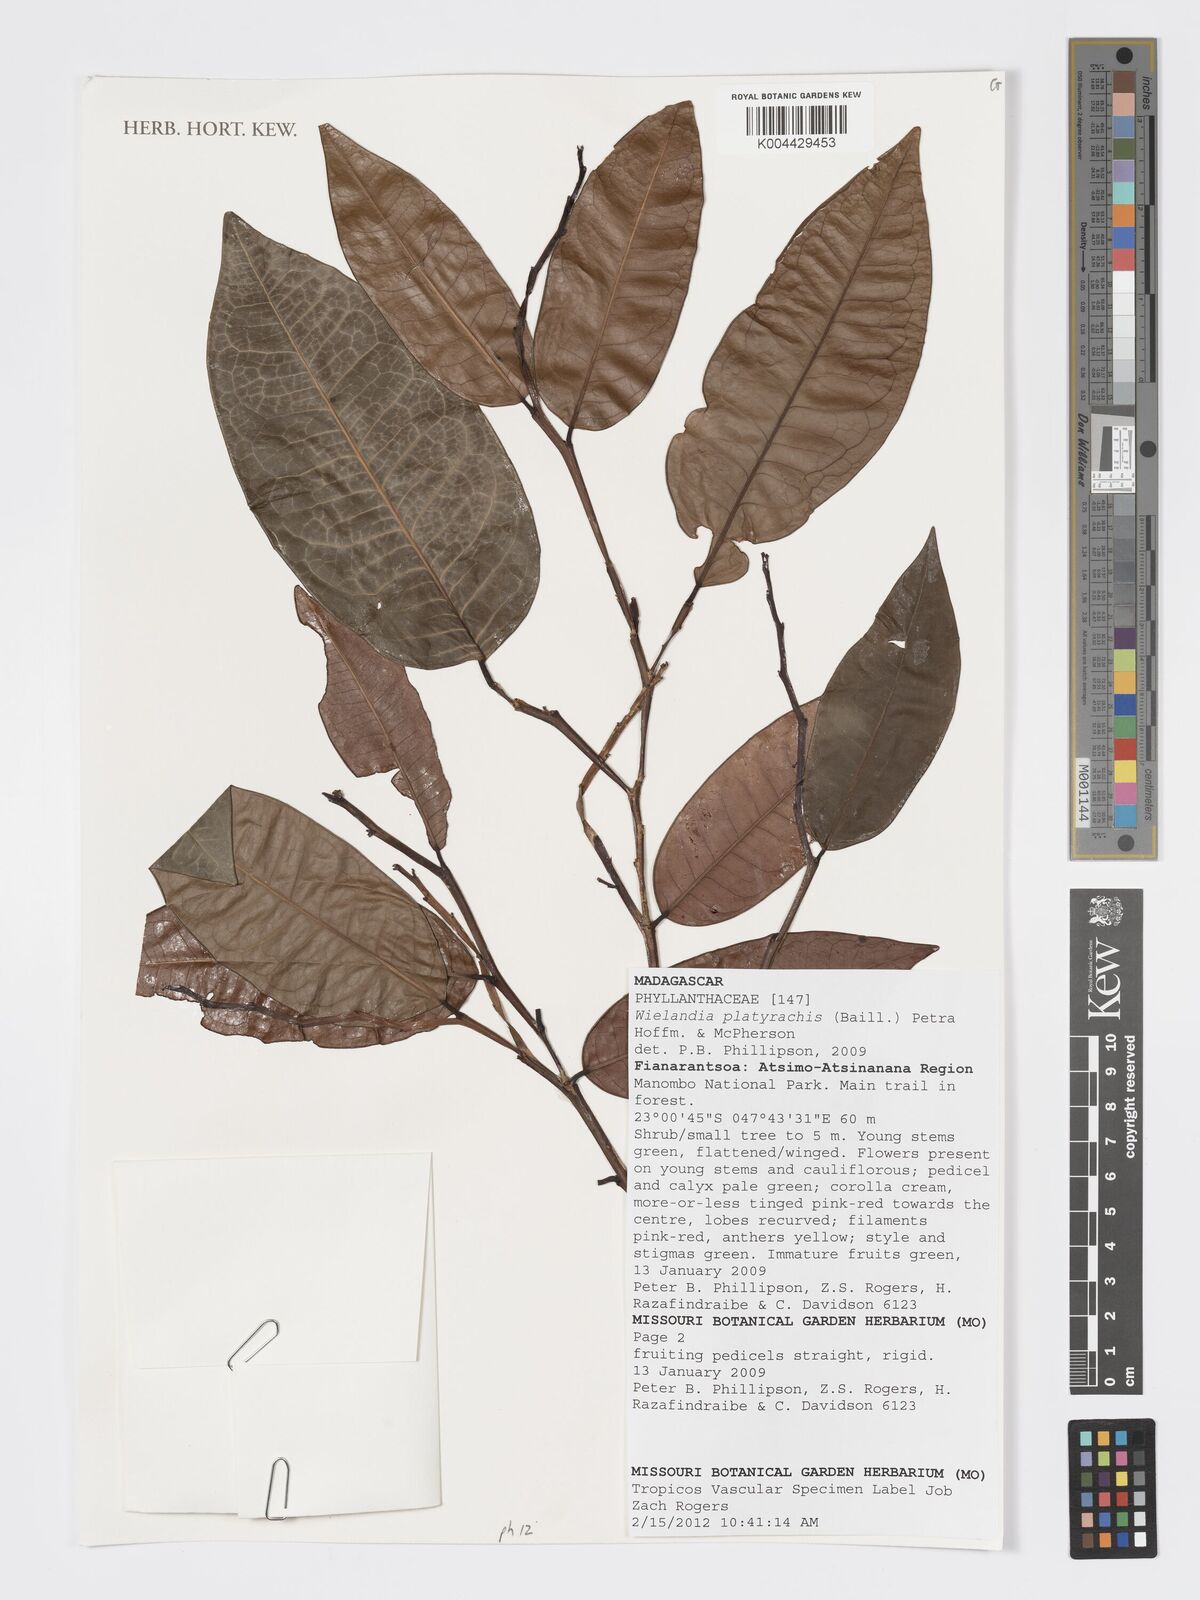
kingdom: Plantae
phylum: Tracheophyta
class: Magnoliopsida
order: Malpighiales
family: Phyllanthaceae
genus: Wielandia
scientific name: Wielandia platyrachis
